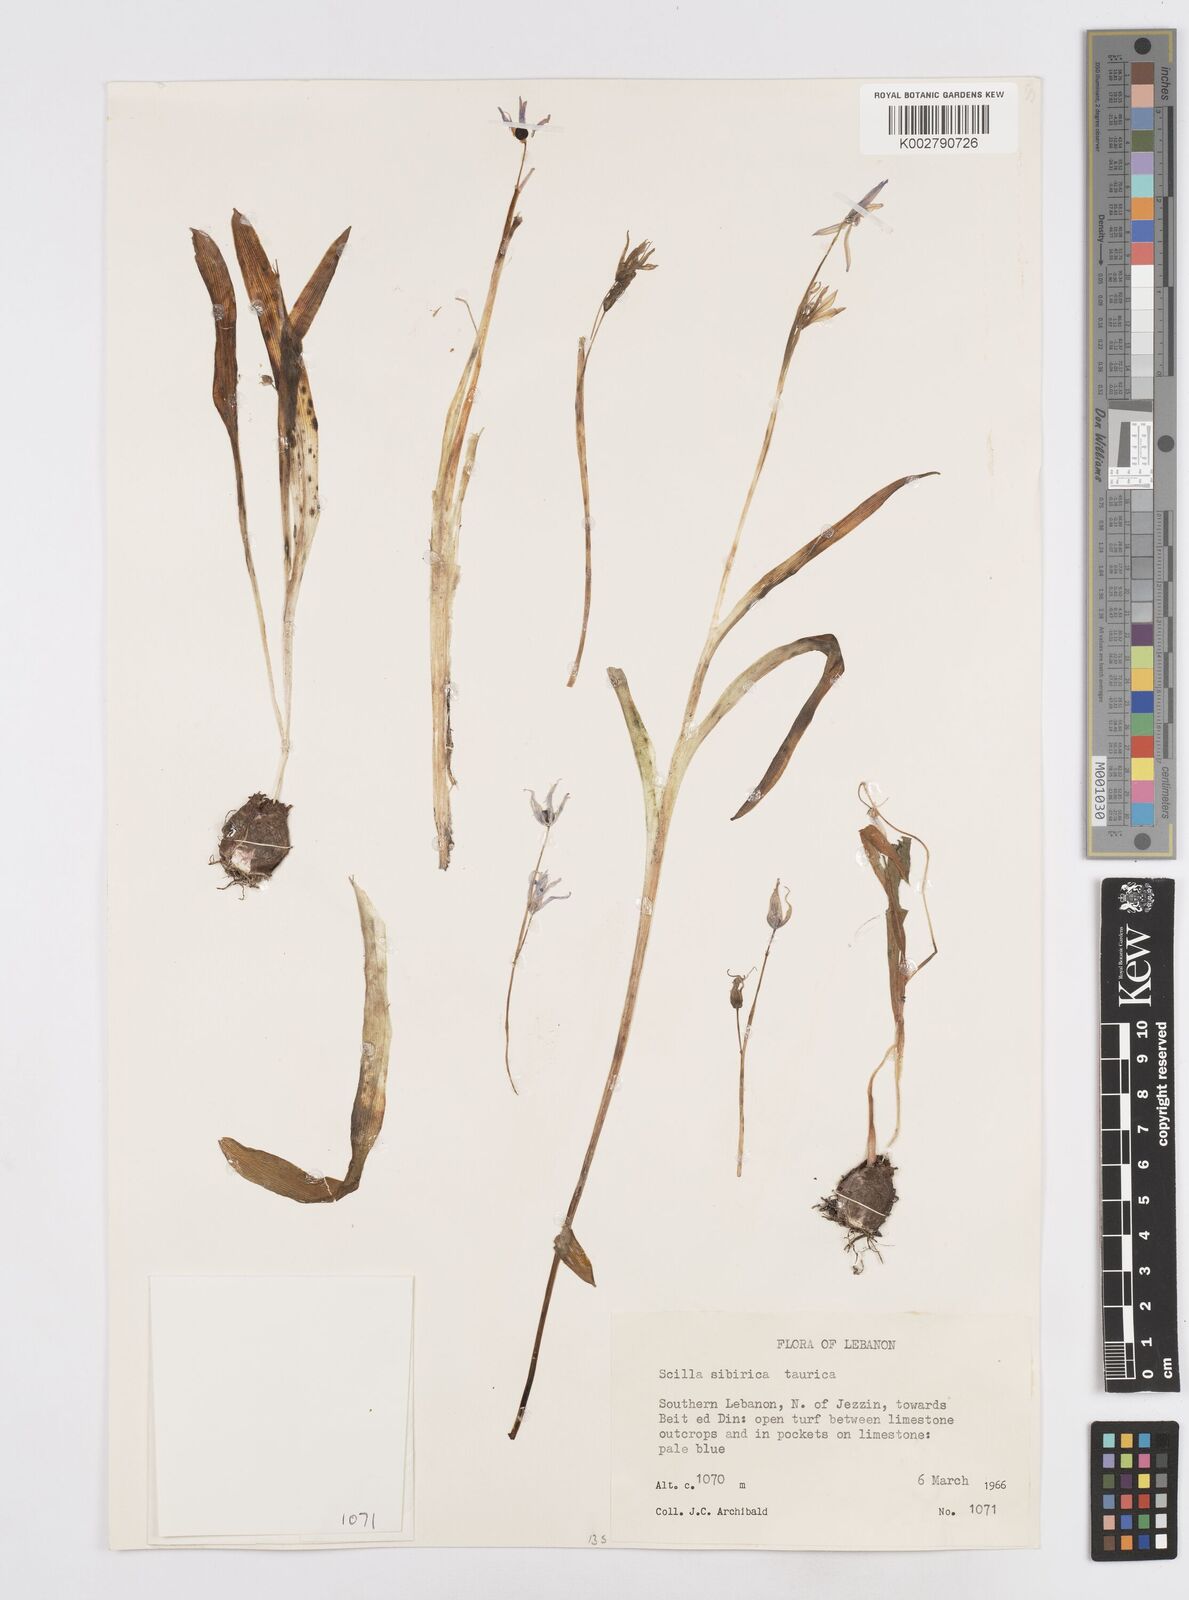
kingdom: Plantae
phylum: Tracheophyta
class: Liliopsida
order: Asparagales
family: Asparagaceae
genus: Scilla
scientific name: Scilla siberica
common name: Siberian squill
